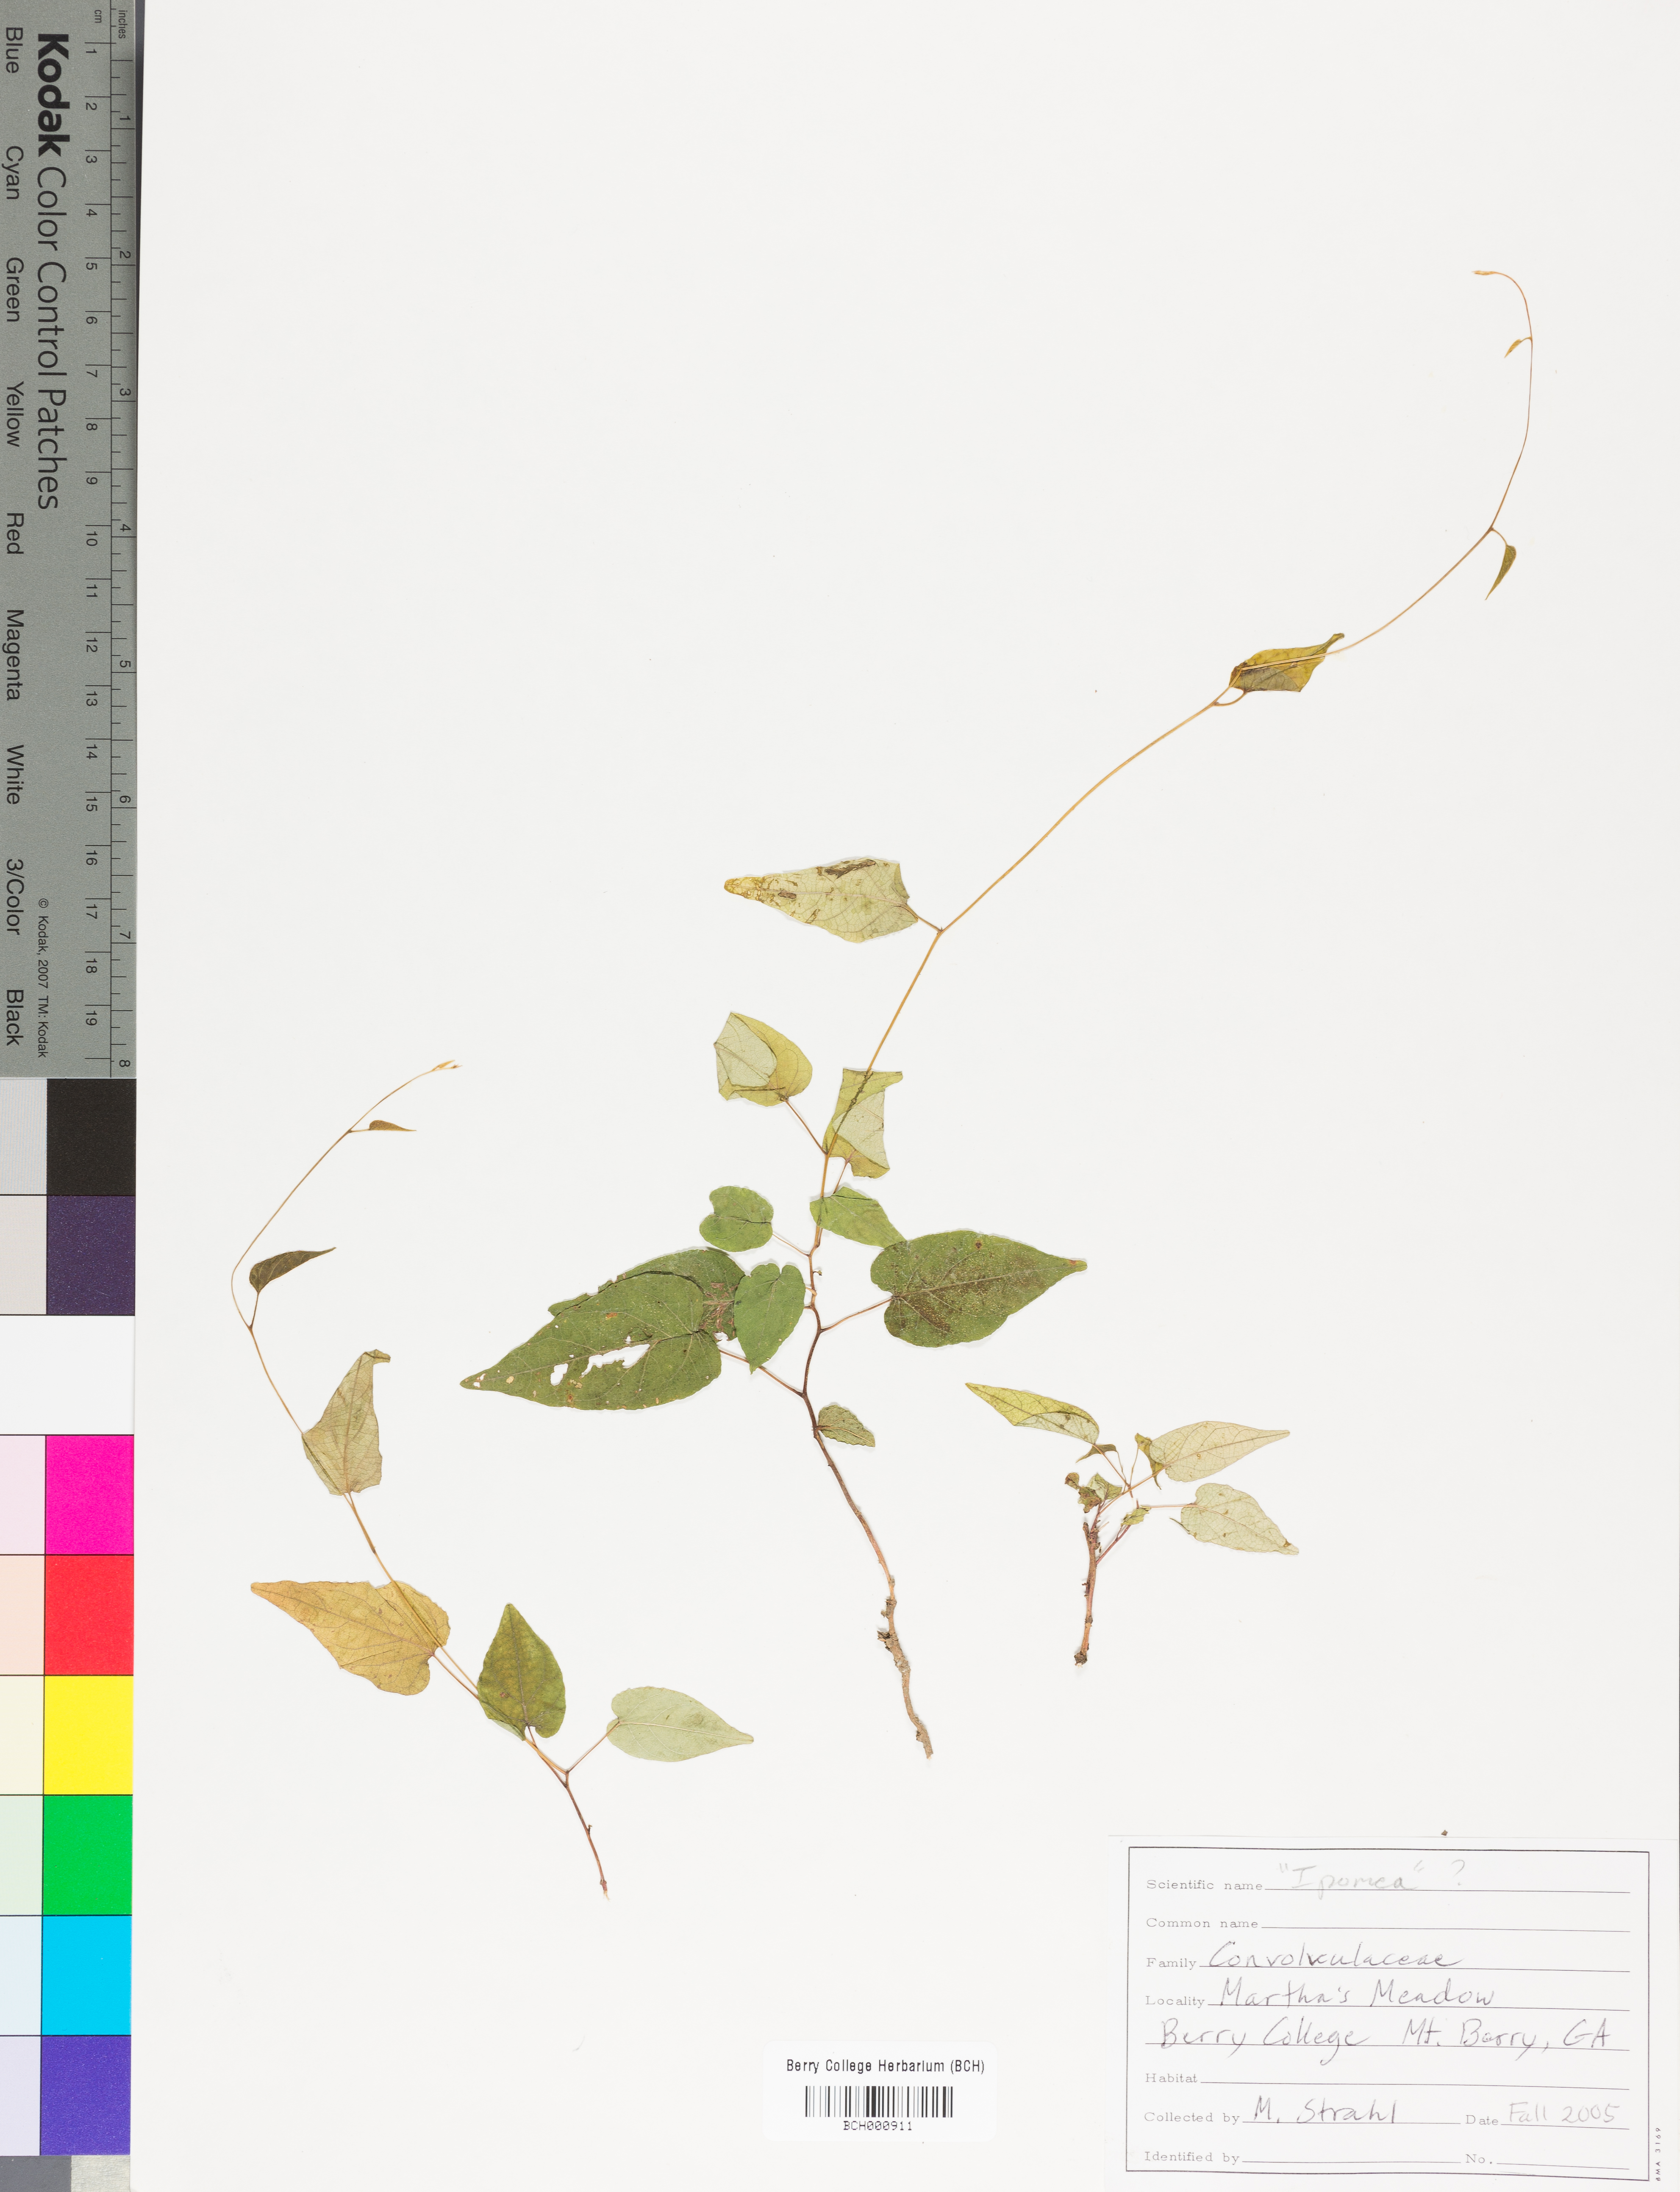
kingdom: Plantae
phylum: Tracheophyta
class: Magnoliopsida
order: Lamiales
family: Acanthaceae
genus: Adhatoda
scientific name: Adhatoda
